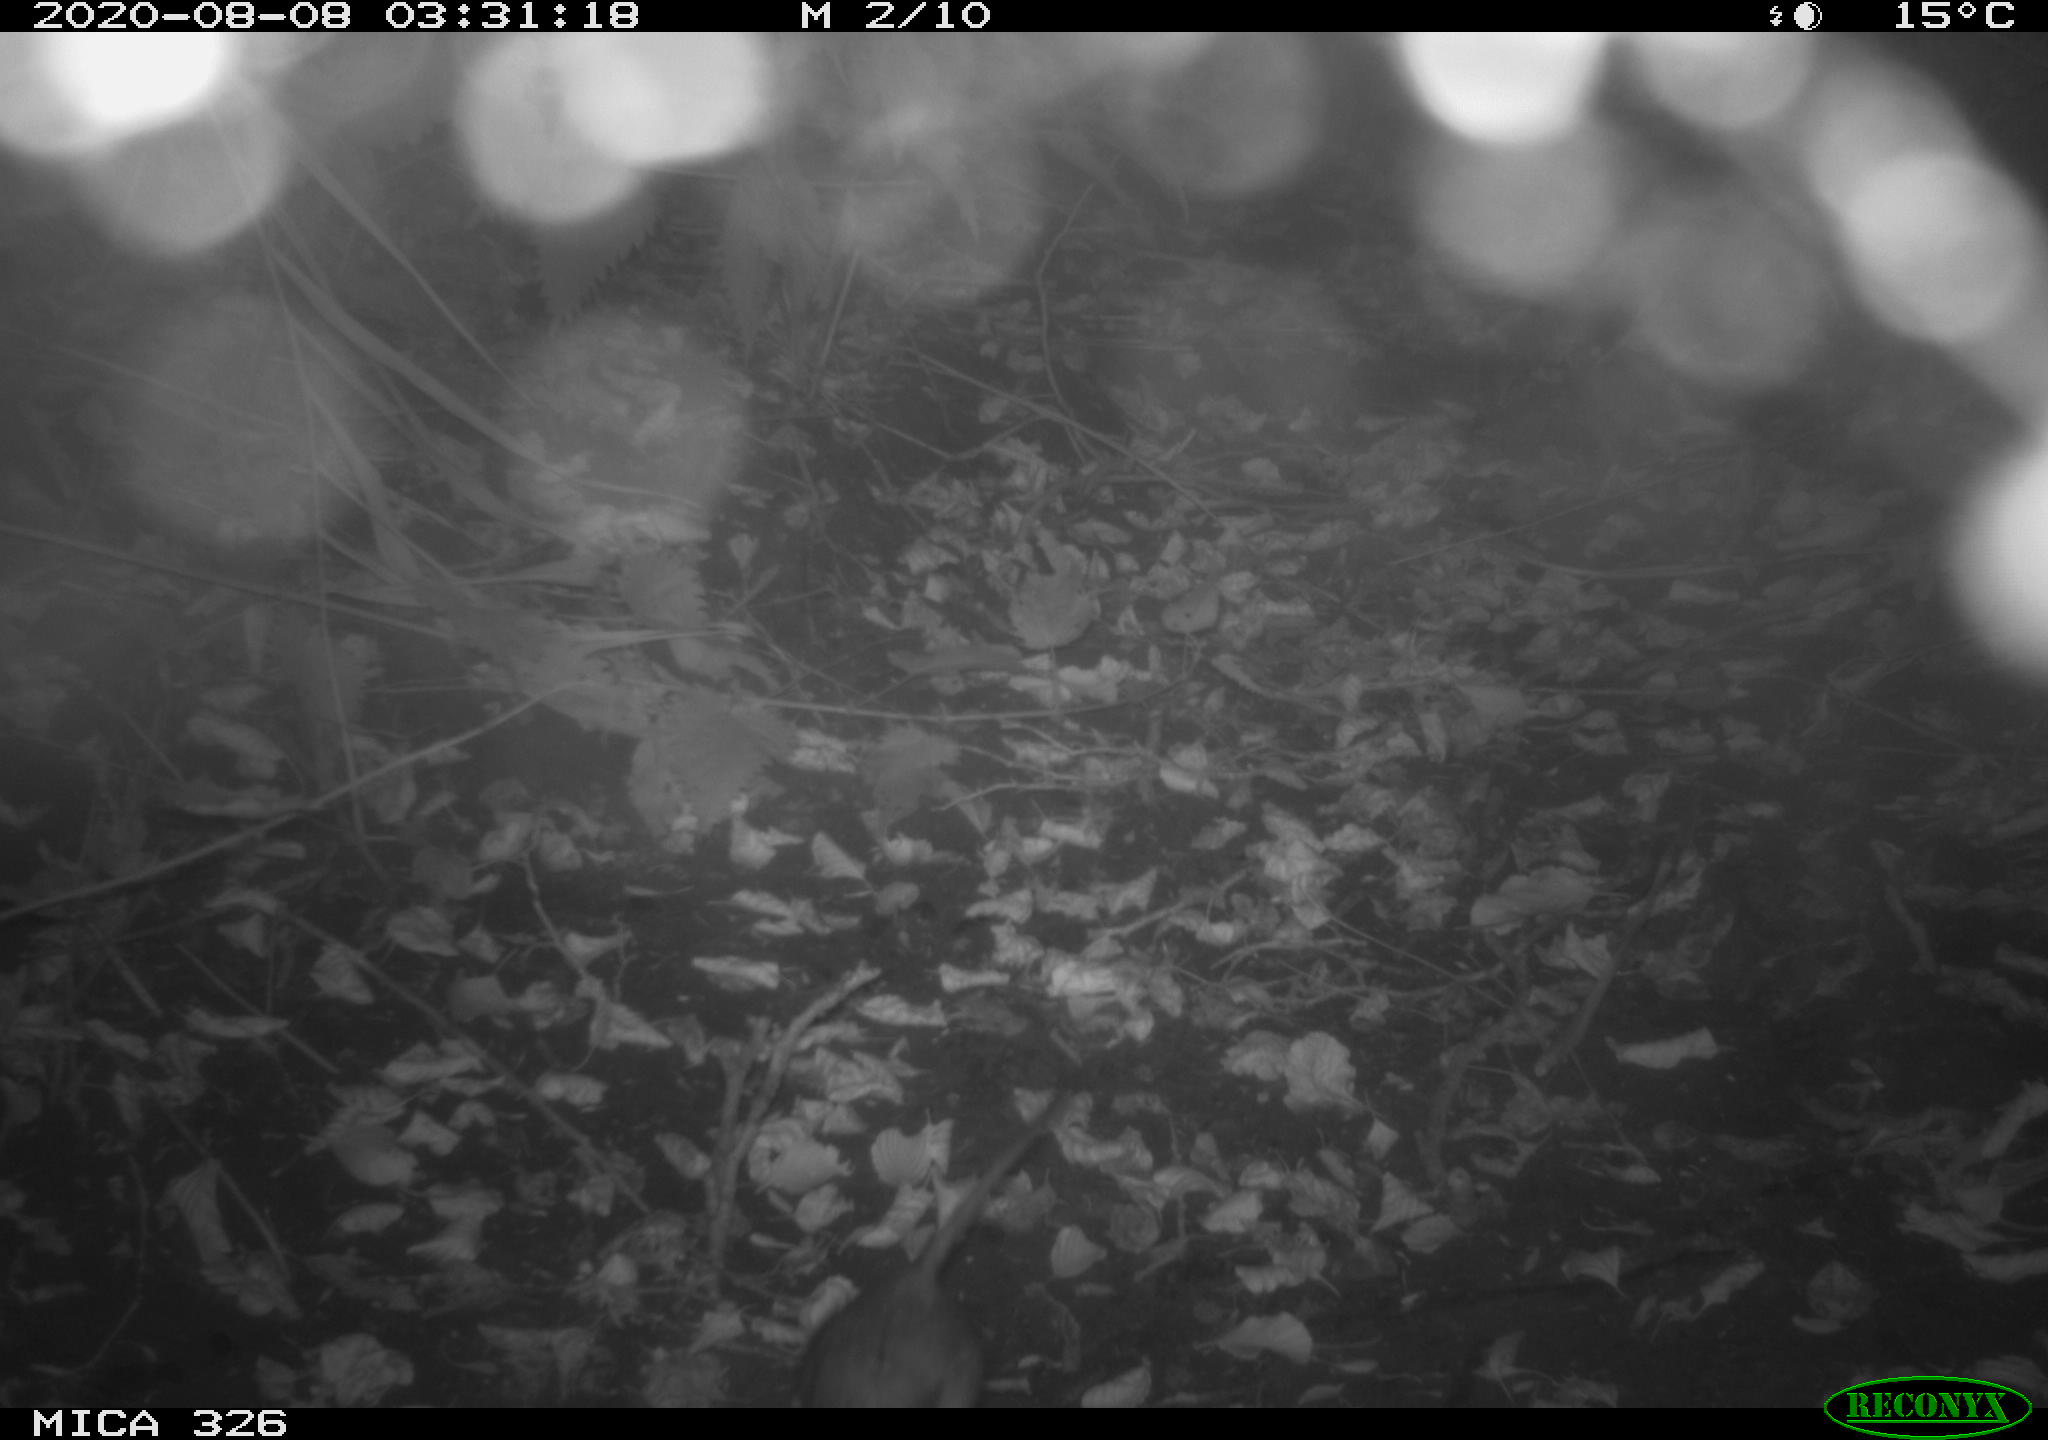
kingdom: Animalia
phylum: Chordata
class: Mammalia
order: Rodentia
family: Muridae
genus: Rattus
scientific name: Rattus norvegicus
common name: Brown rat
